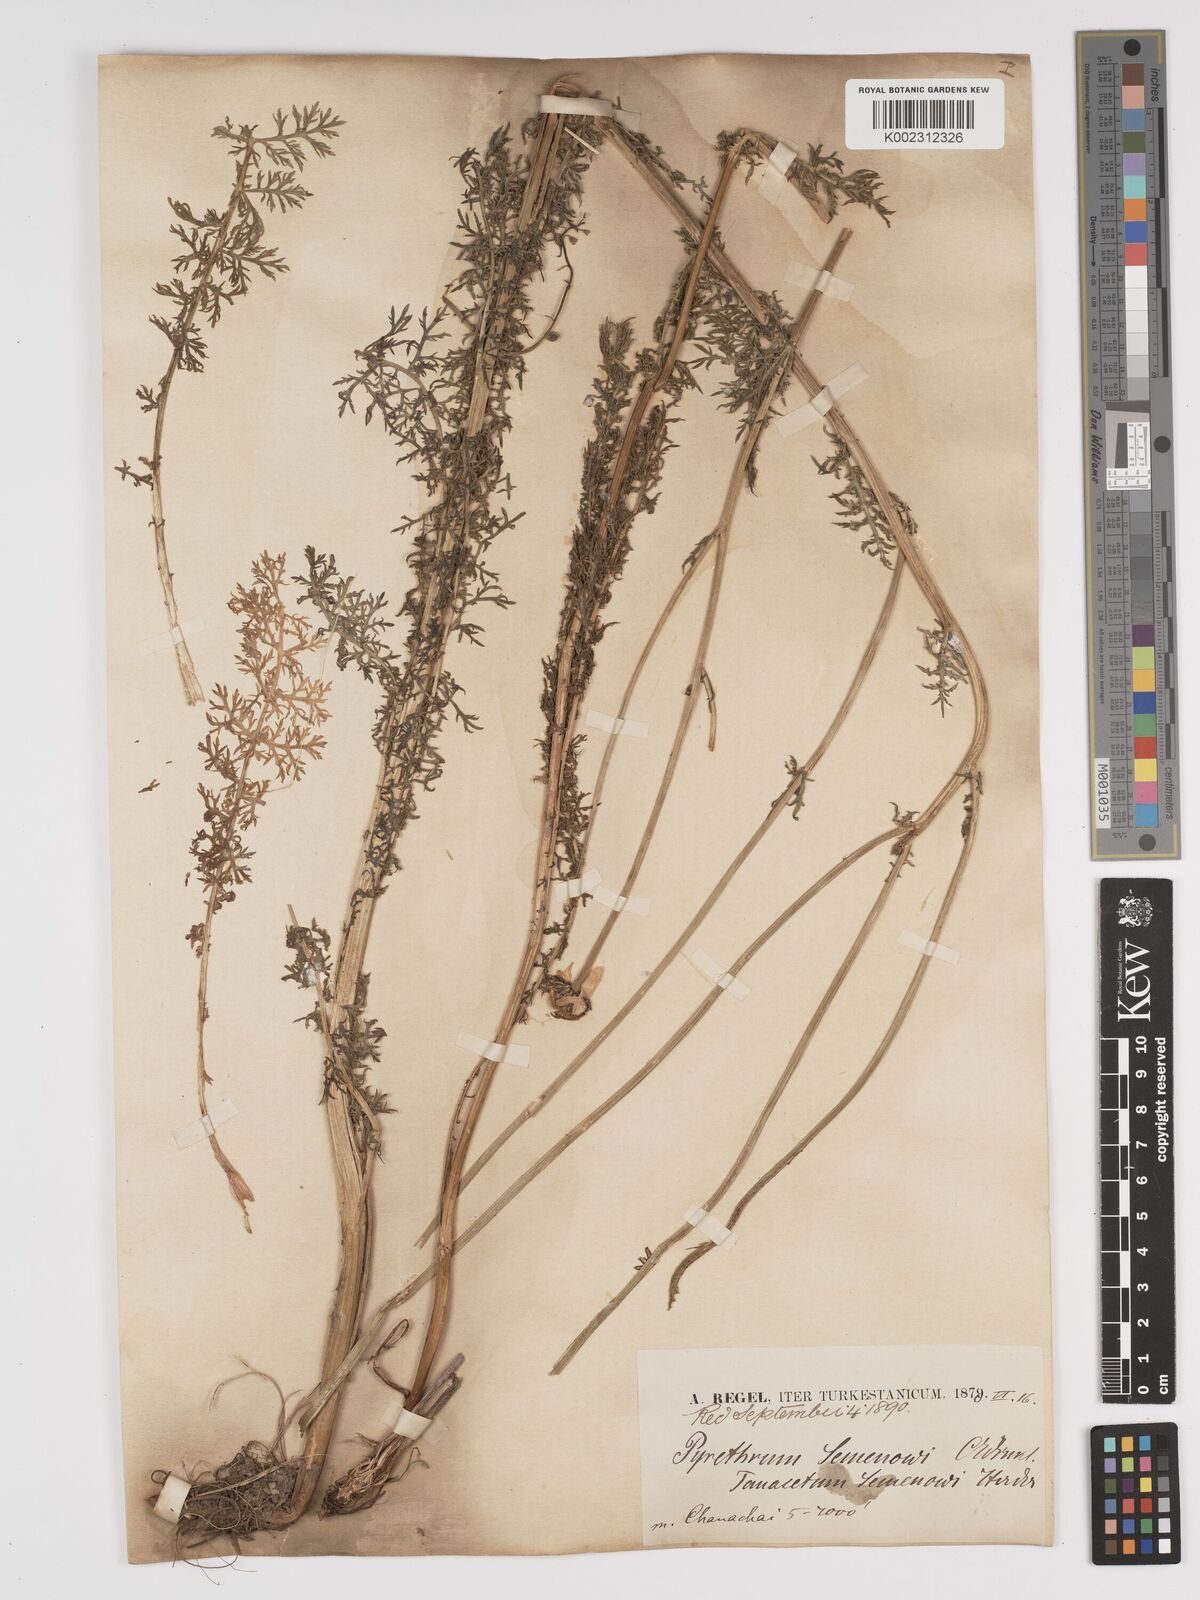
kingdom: Plantae
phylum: Tracheophyta
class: Magnoliopsida
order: Asterales
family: Asteraceae
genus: Tanacetum
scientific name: Tanacetum alatavicum
